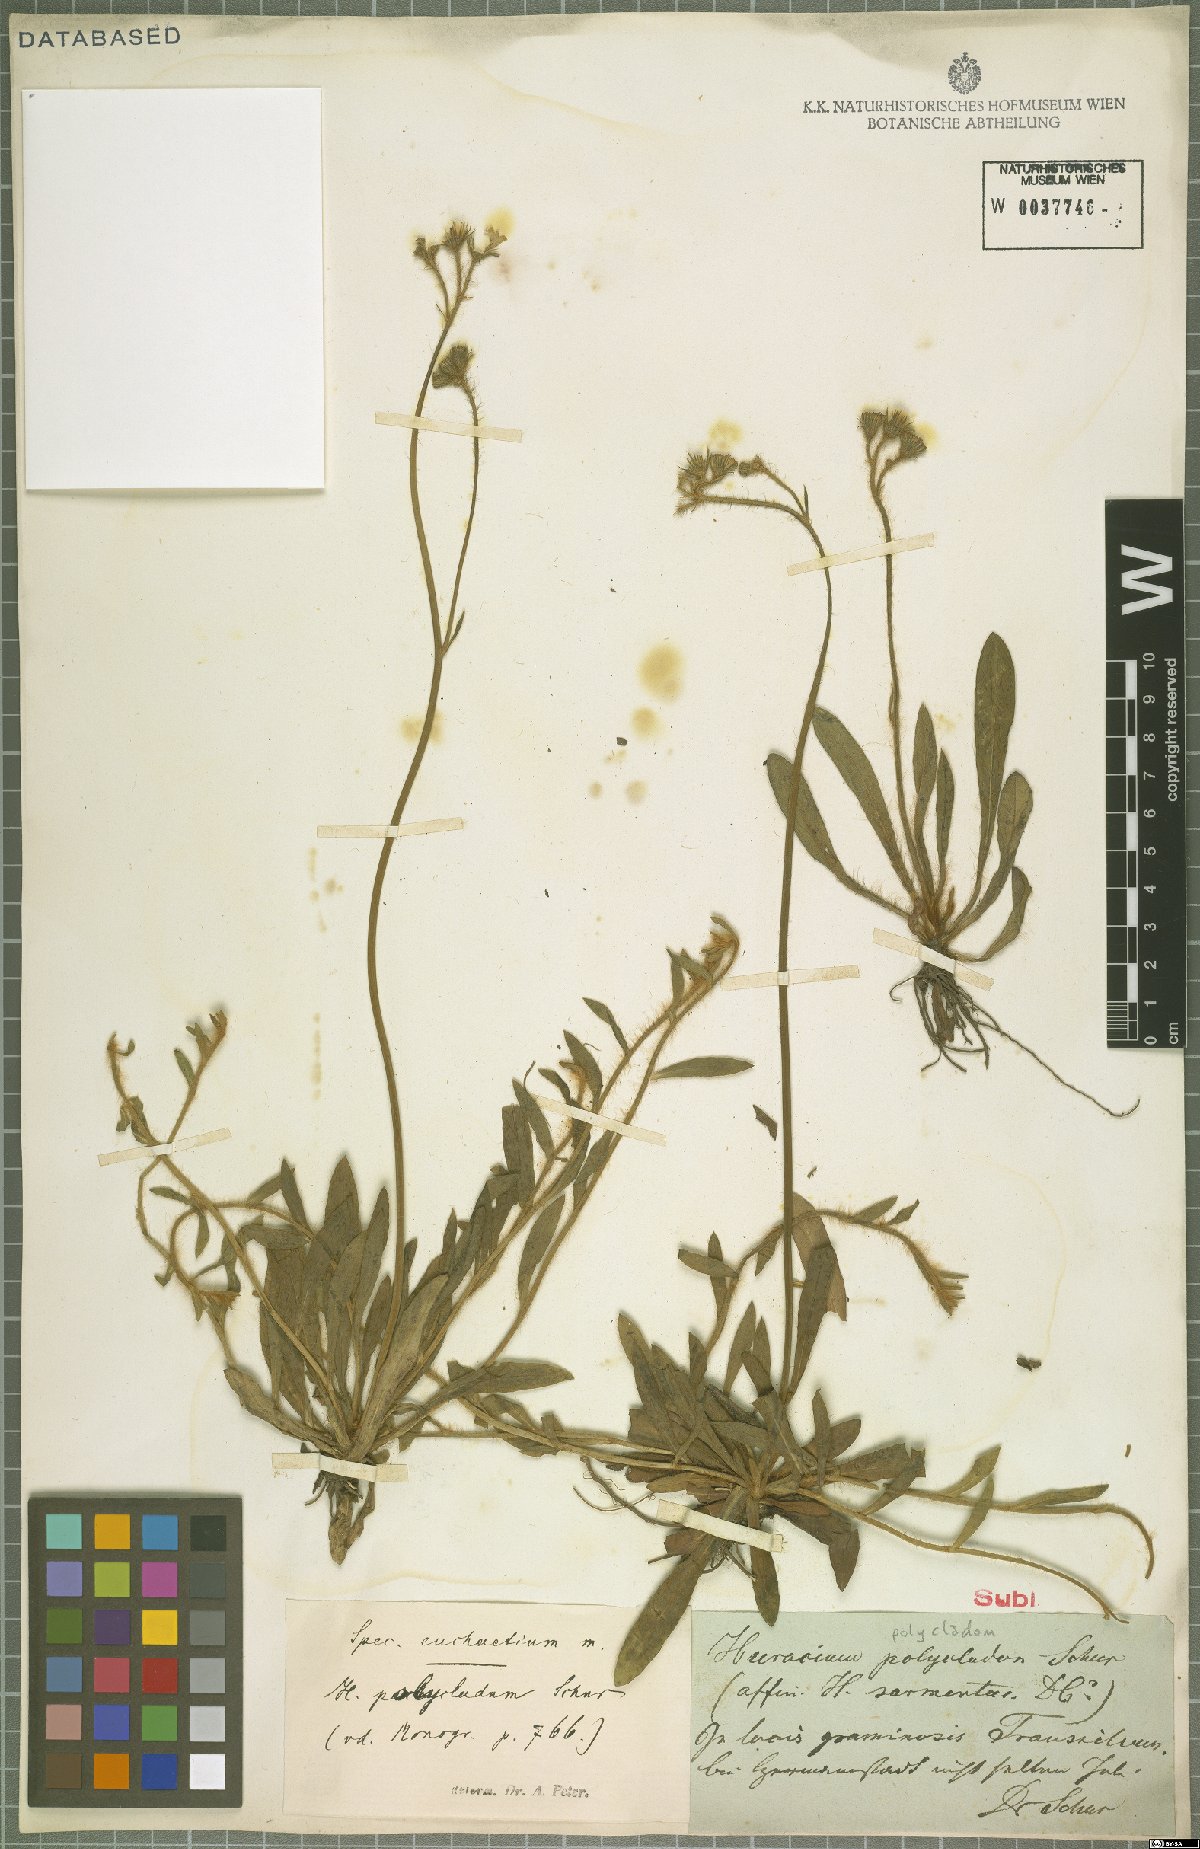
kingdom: Plantae
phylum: Tracheophyta
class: Magnoliopsida
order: Asterales
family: Asteraceae
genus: Hieracium
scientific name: Hieracium polycladon
